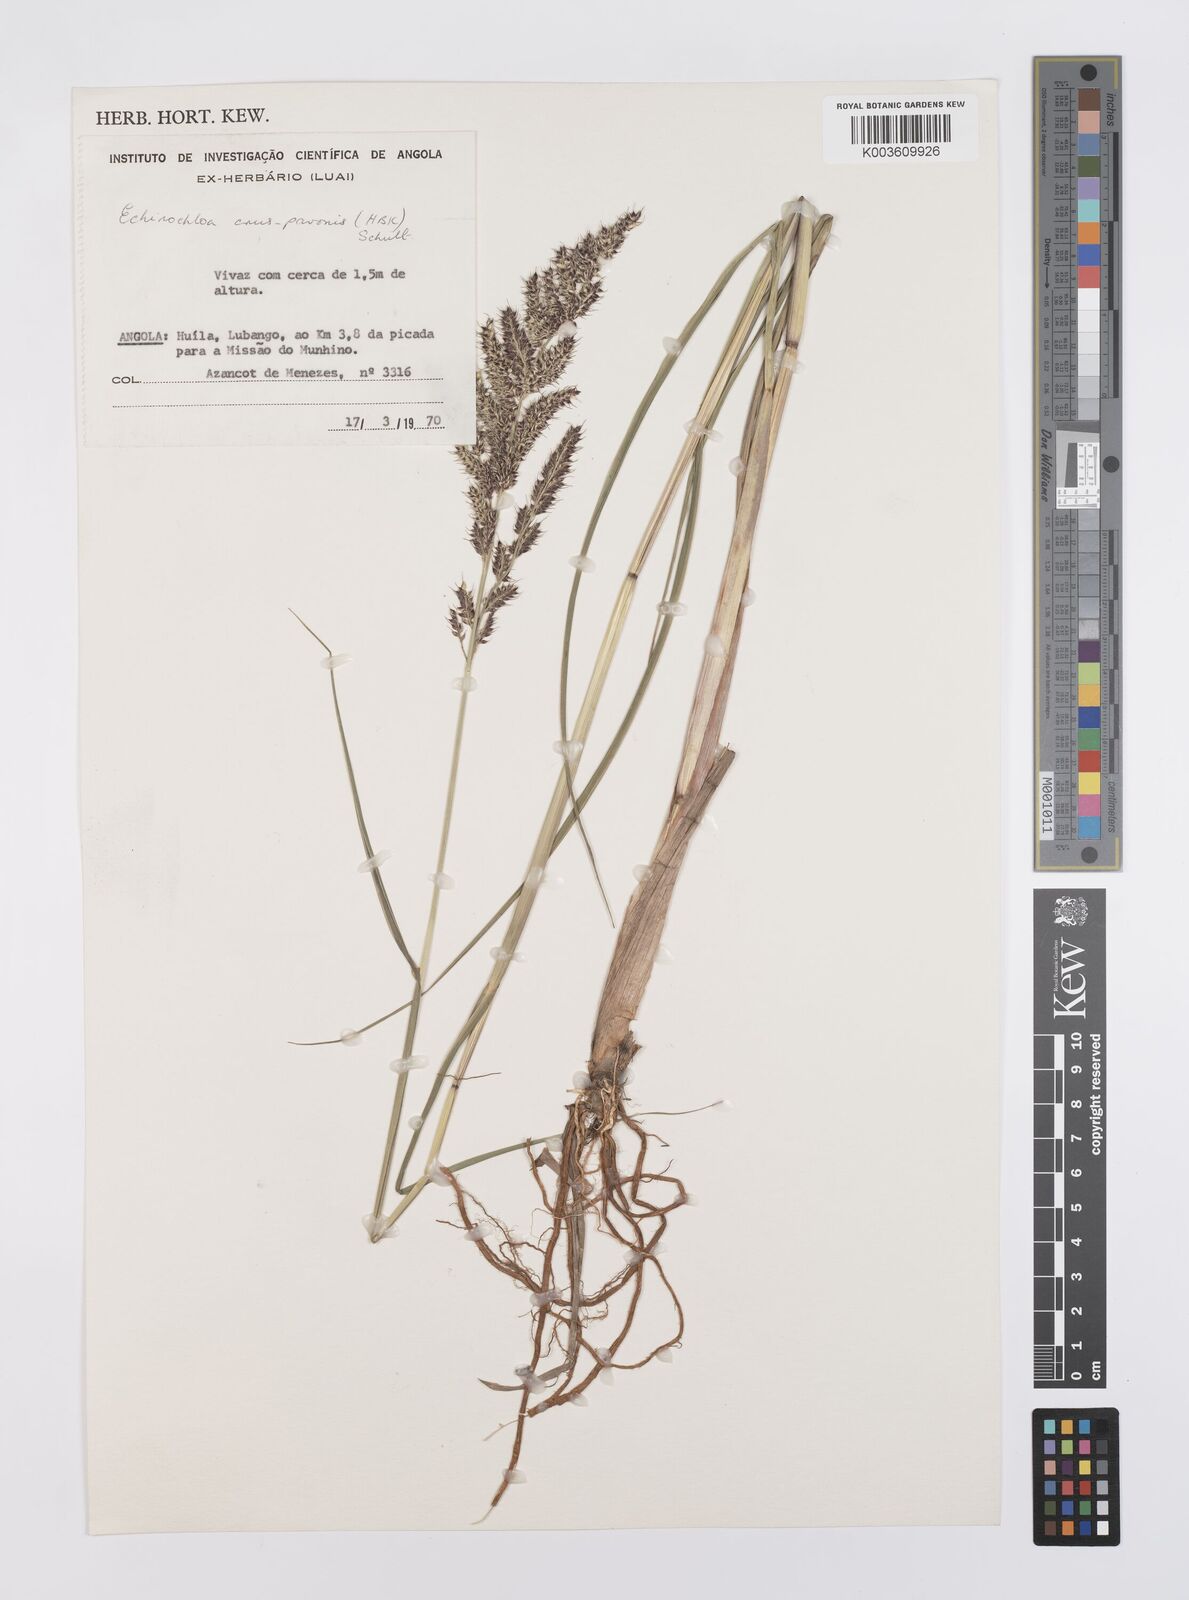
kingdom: Plantae
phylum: Tracheophyta
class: Liliopsida
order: Poales
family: Poaceae
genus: Echinochloa
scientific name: Echinochloa crus-pavonis
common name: Gulf cockspur grass
